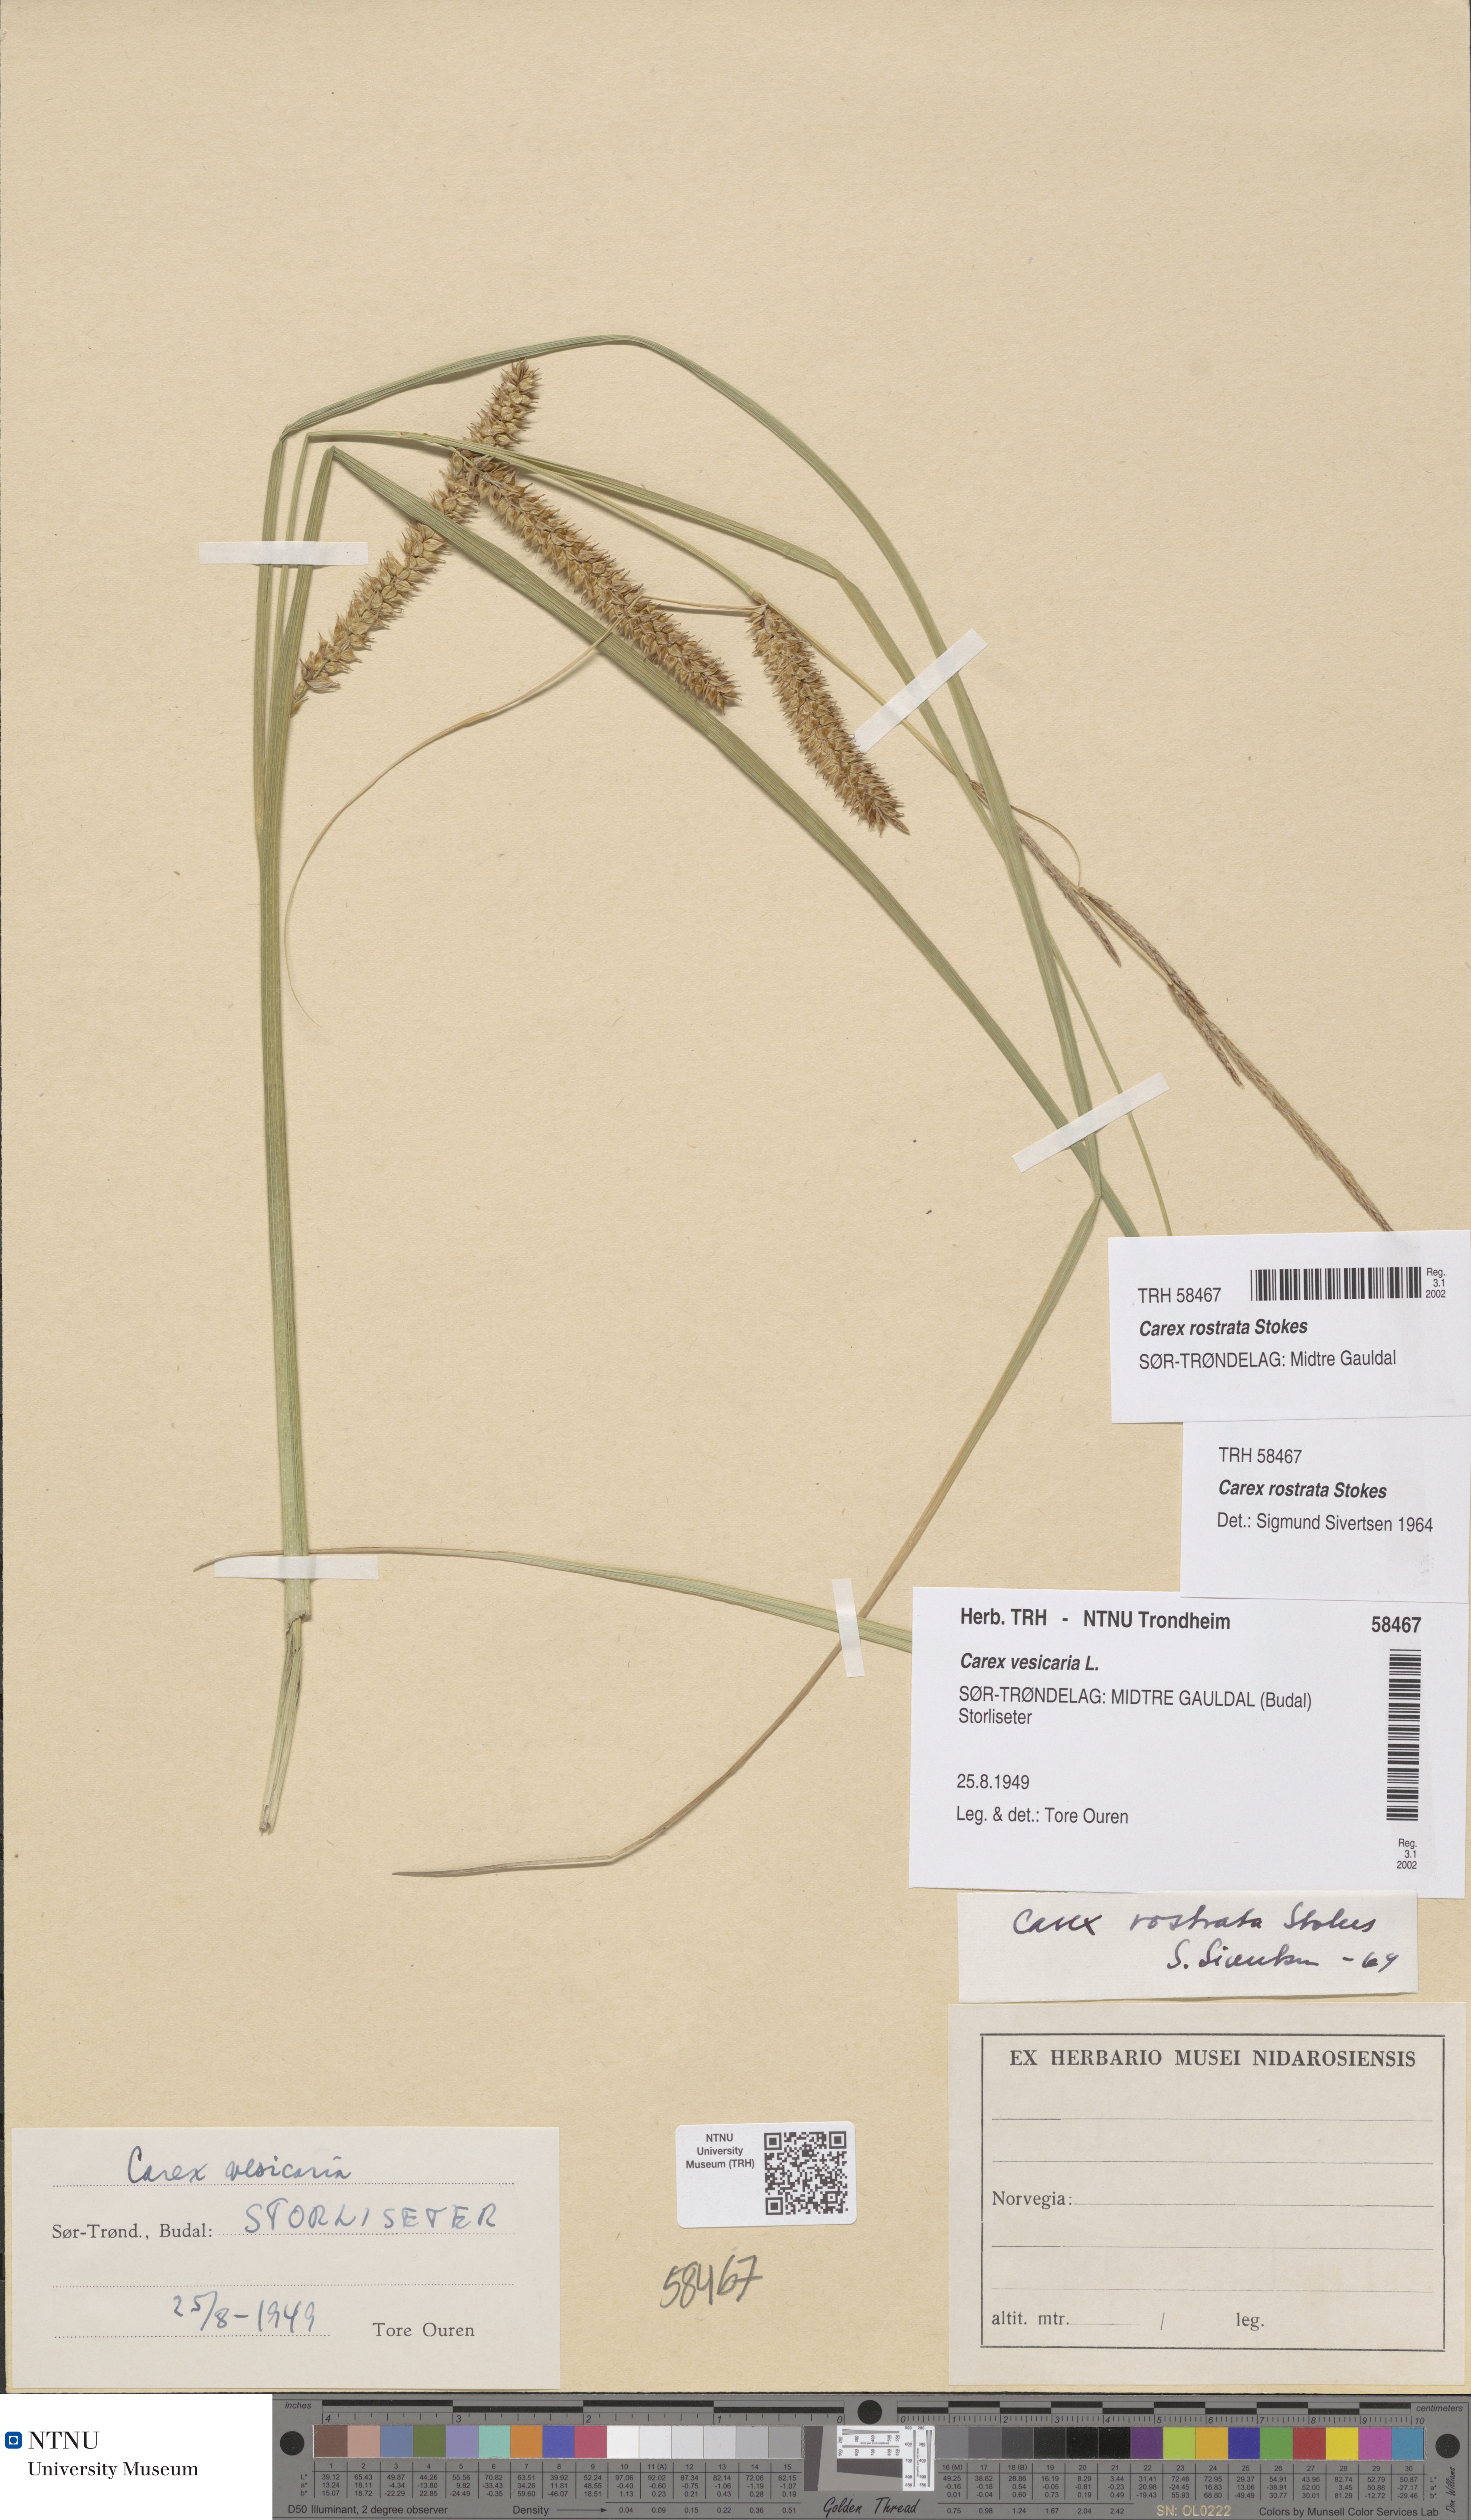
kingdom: Plantae
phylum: Tracheophyta
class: Liliopsida
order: Poales
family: Cyperaceae
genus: Carex
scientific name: Carex rostrata
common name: Bottle sedge
